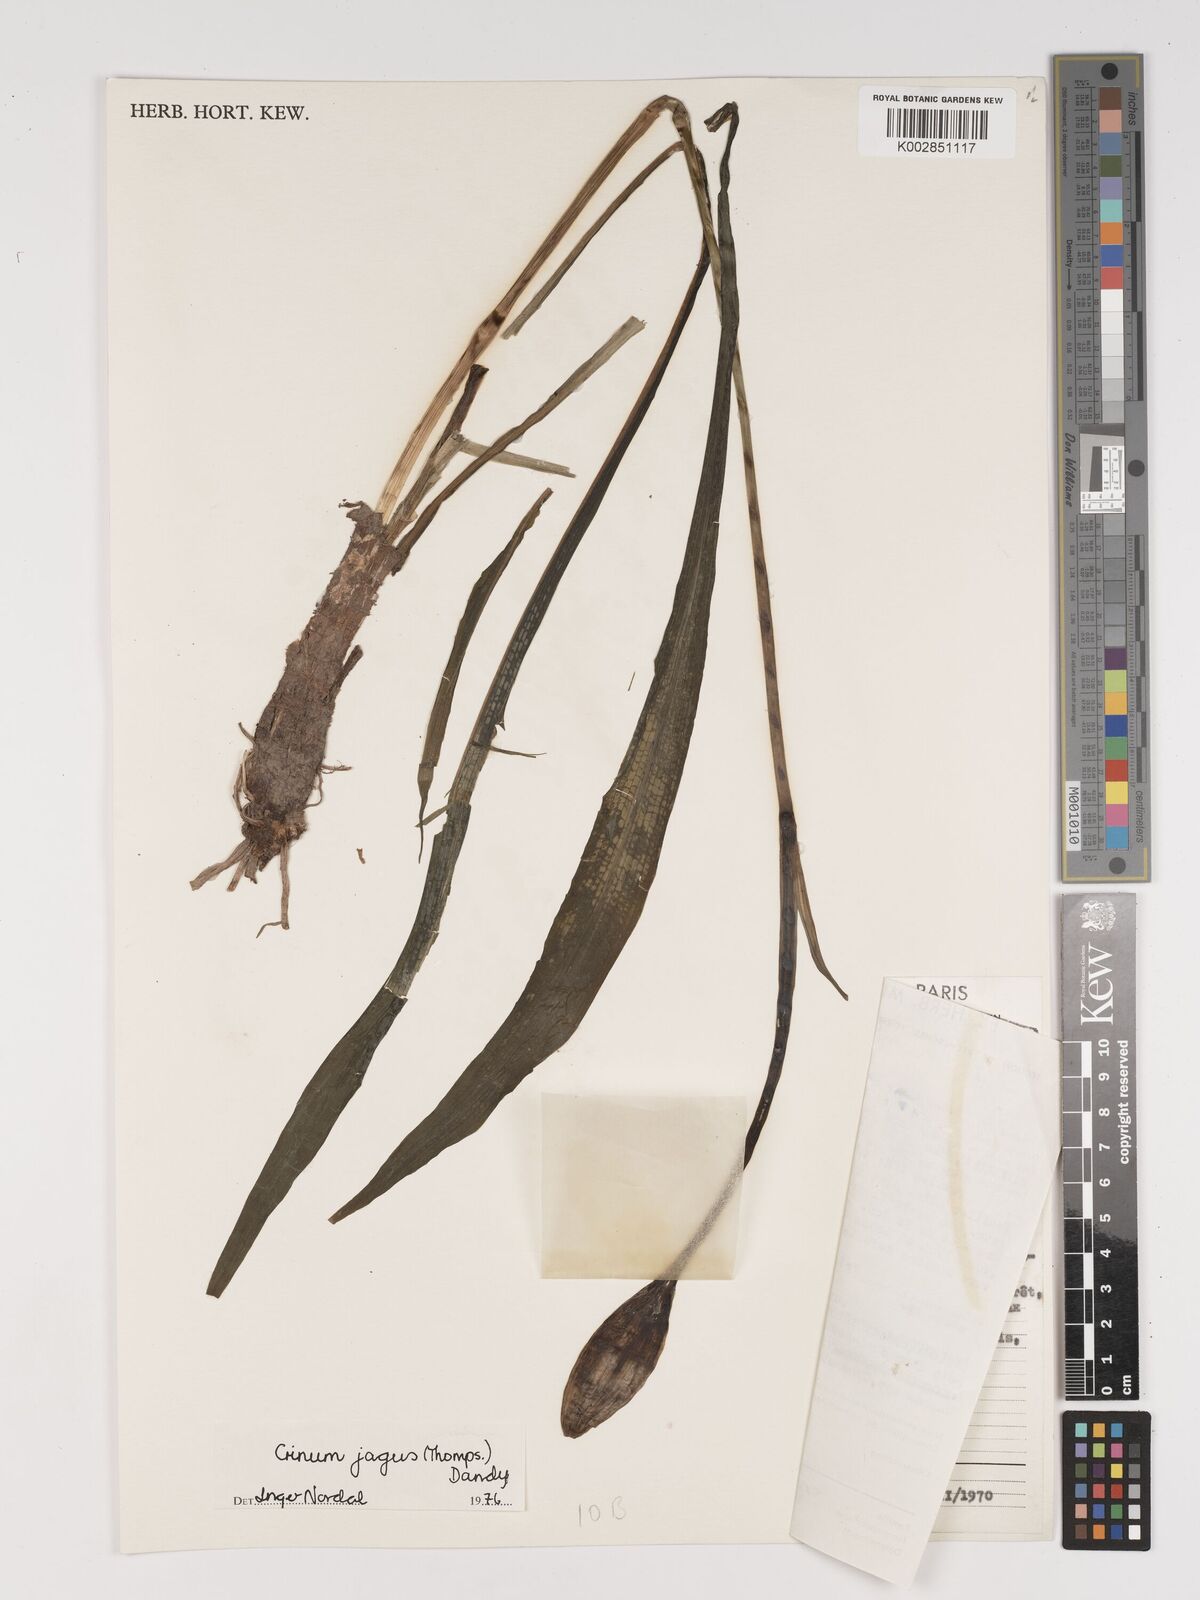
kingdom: Plantae
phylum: Tracheophyta
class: Liliopsida
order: Asparagales
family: Amaryllidaceae
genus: Crinum
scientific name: Crinum jagus
